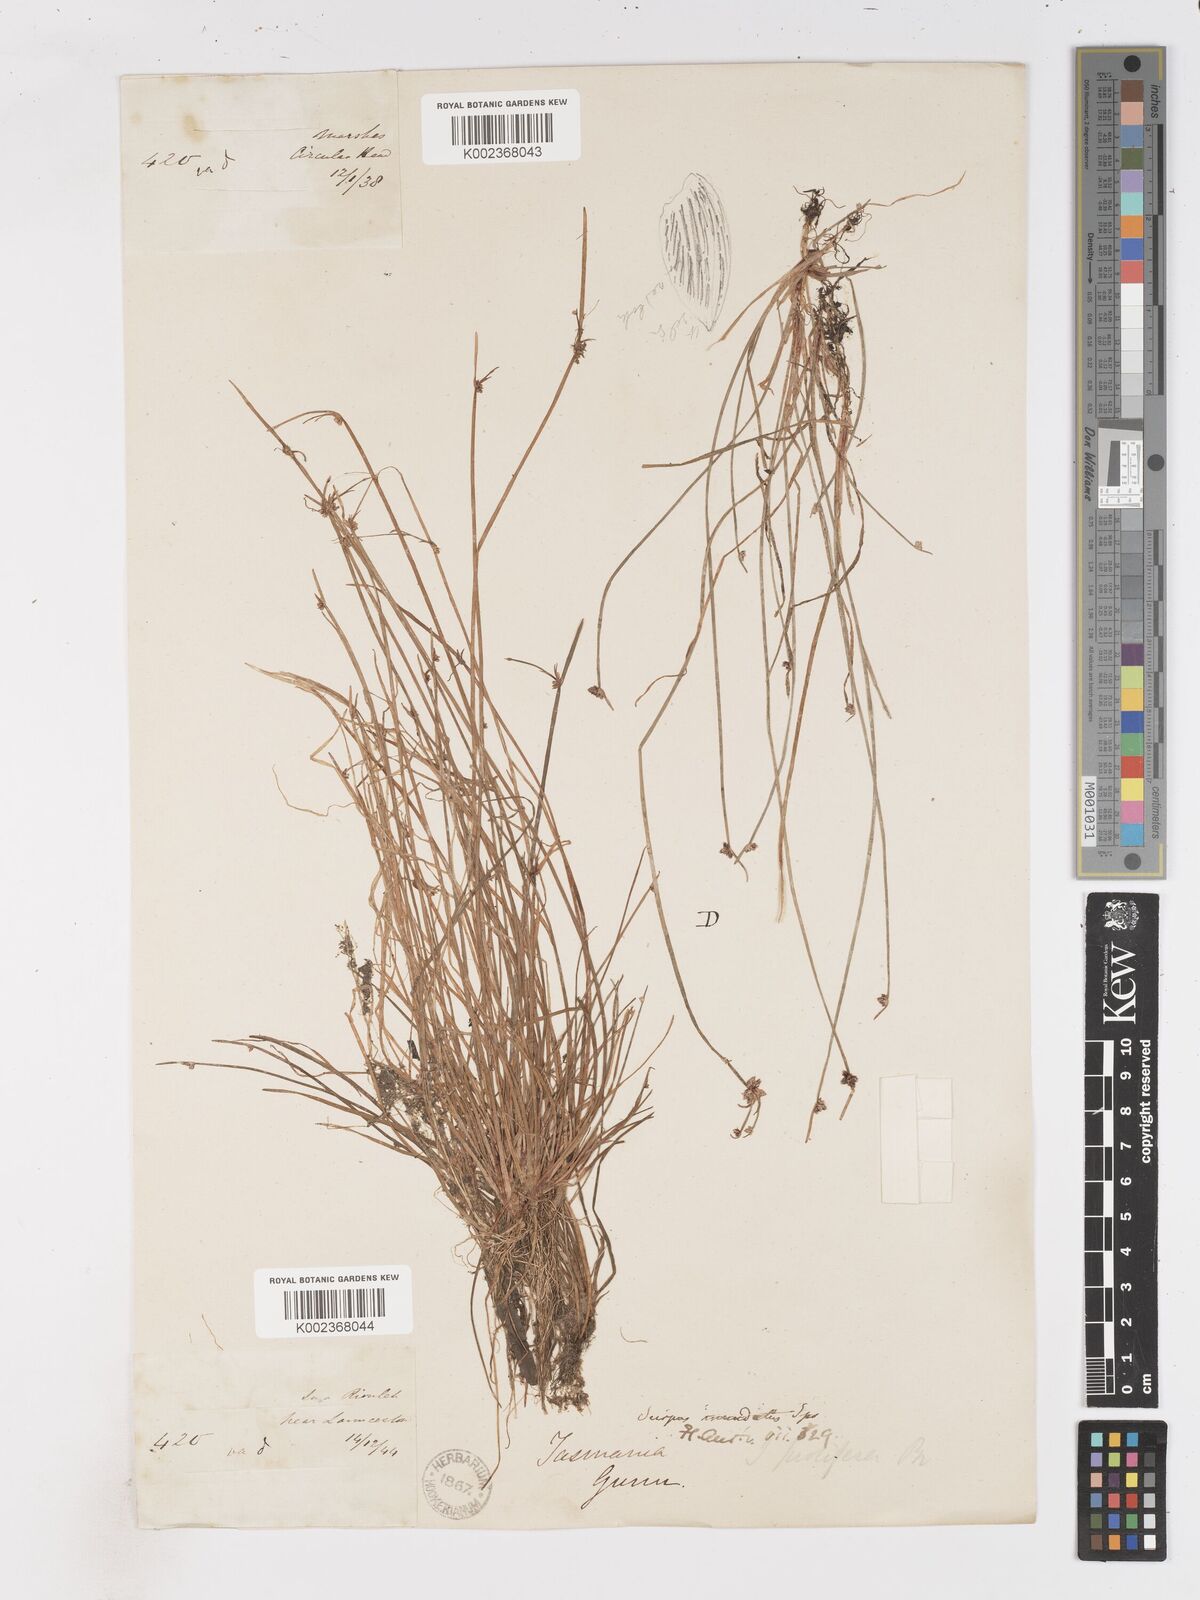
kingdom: Plantae
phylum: Tracheophyta
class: Liliopsida
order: Poales
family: Cyperaceae
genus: Isolepis
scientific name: Isolepis inundata
